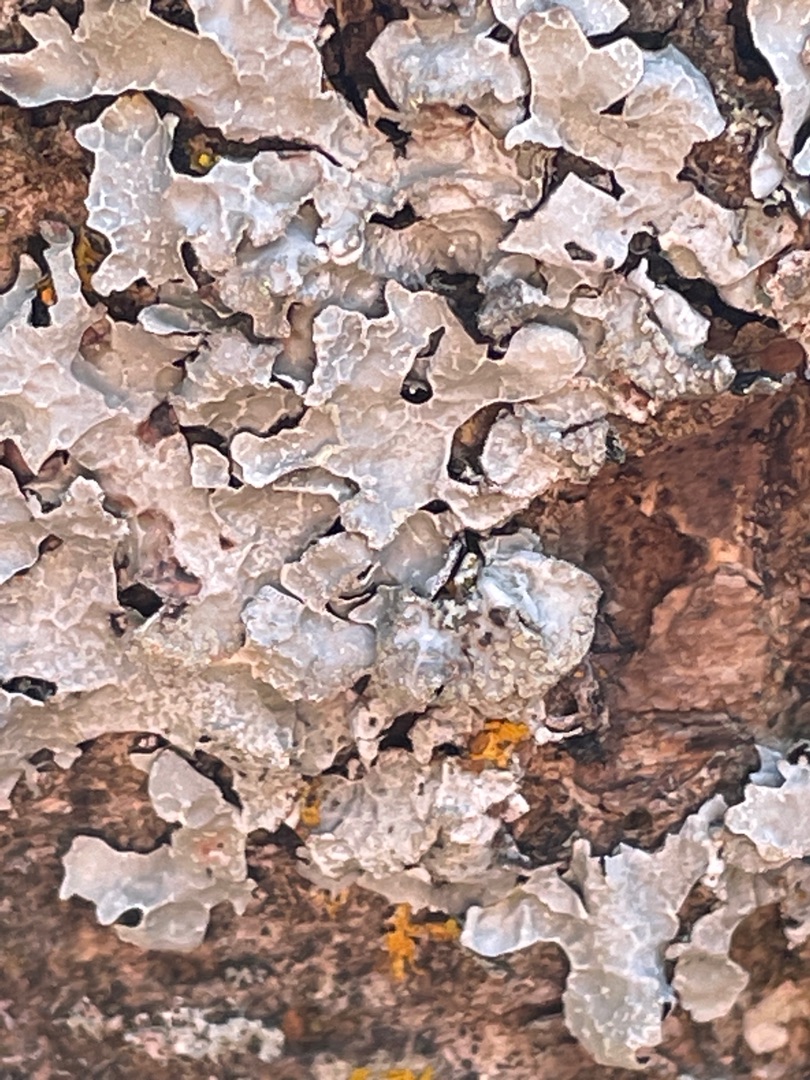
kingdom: Fungi
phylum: Ascomycota
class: Lecanoromycetes
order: Lecanorales
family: Parmeliaceae
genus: Parmelia
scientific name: Parmelia sulcata
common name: Rynket skållav
